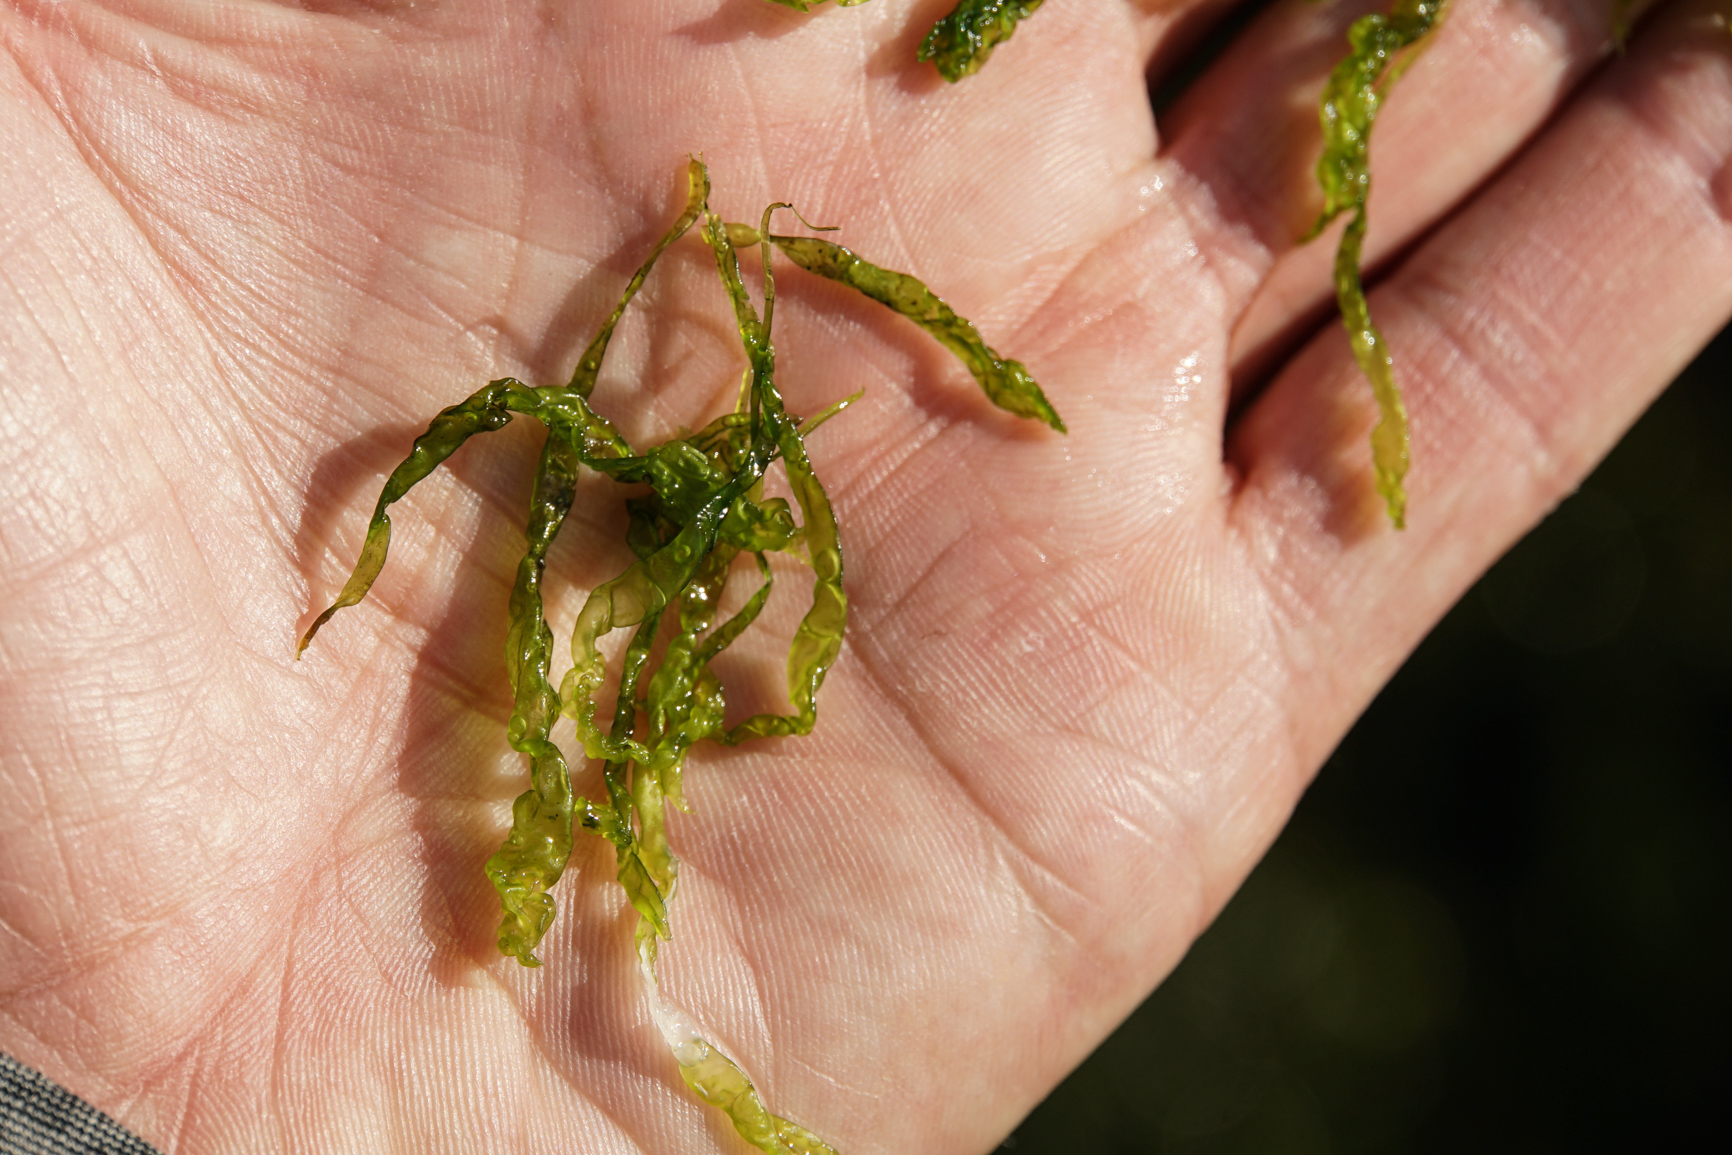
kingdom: Plantae
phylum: Chlorophyta
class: Ulvophyceae
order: Ulvales
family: Ulvaceae
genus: Ulva
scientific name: Ulva intestinalis
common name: Gut weed
